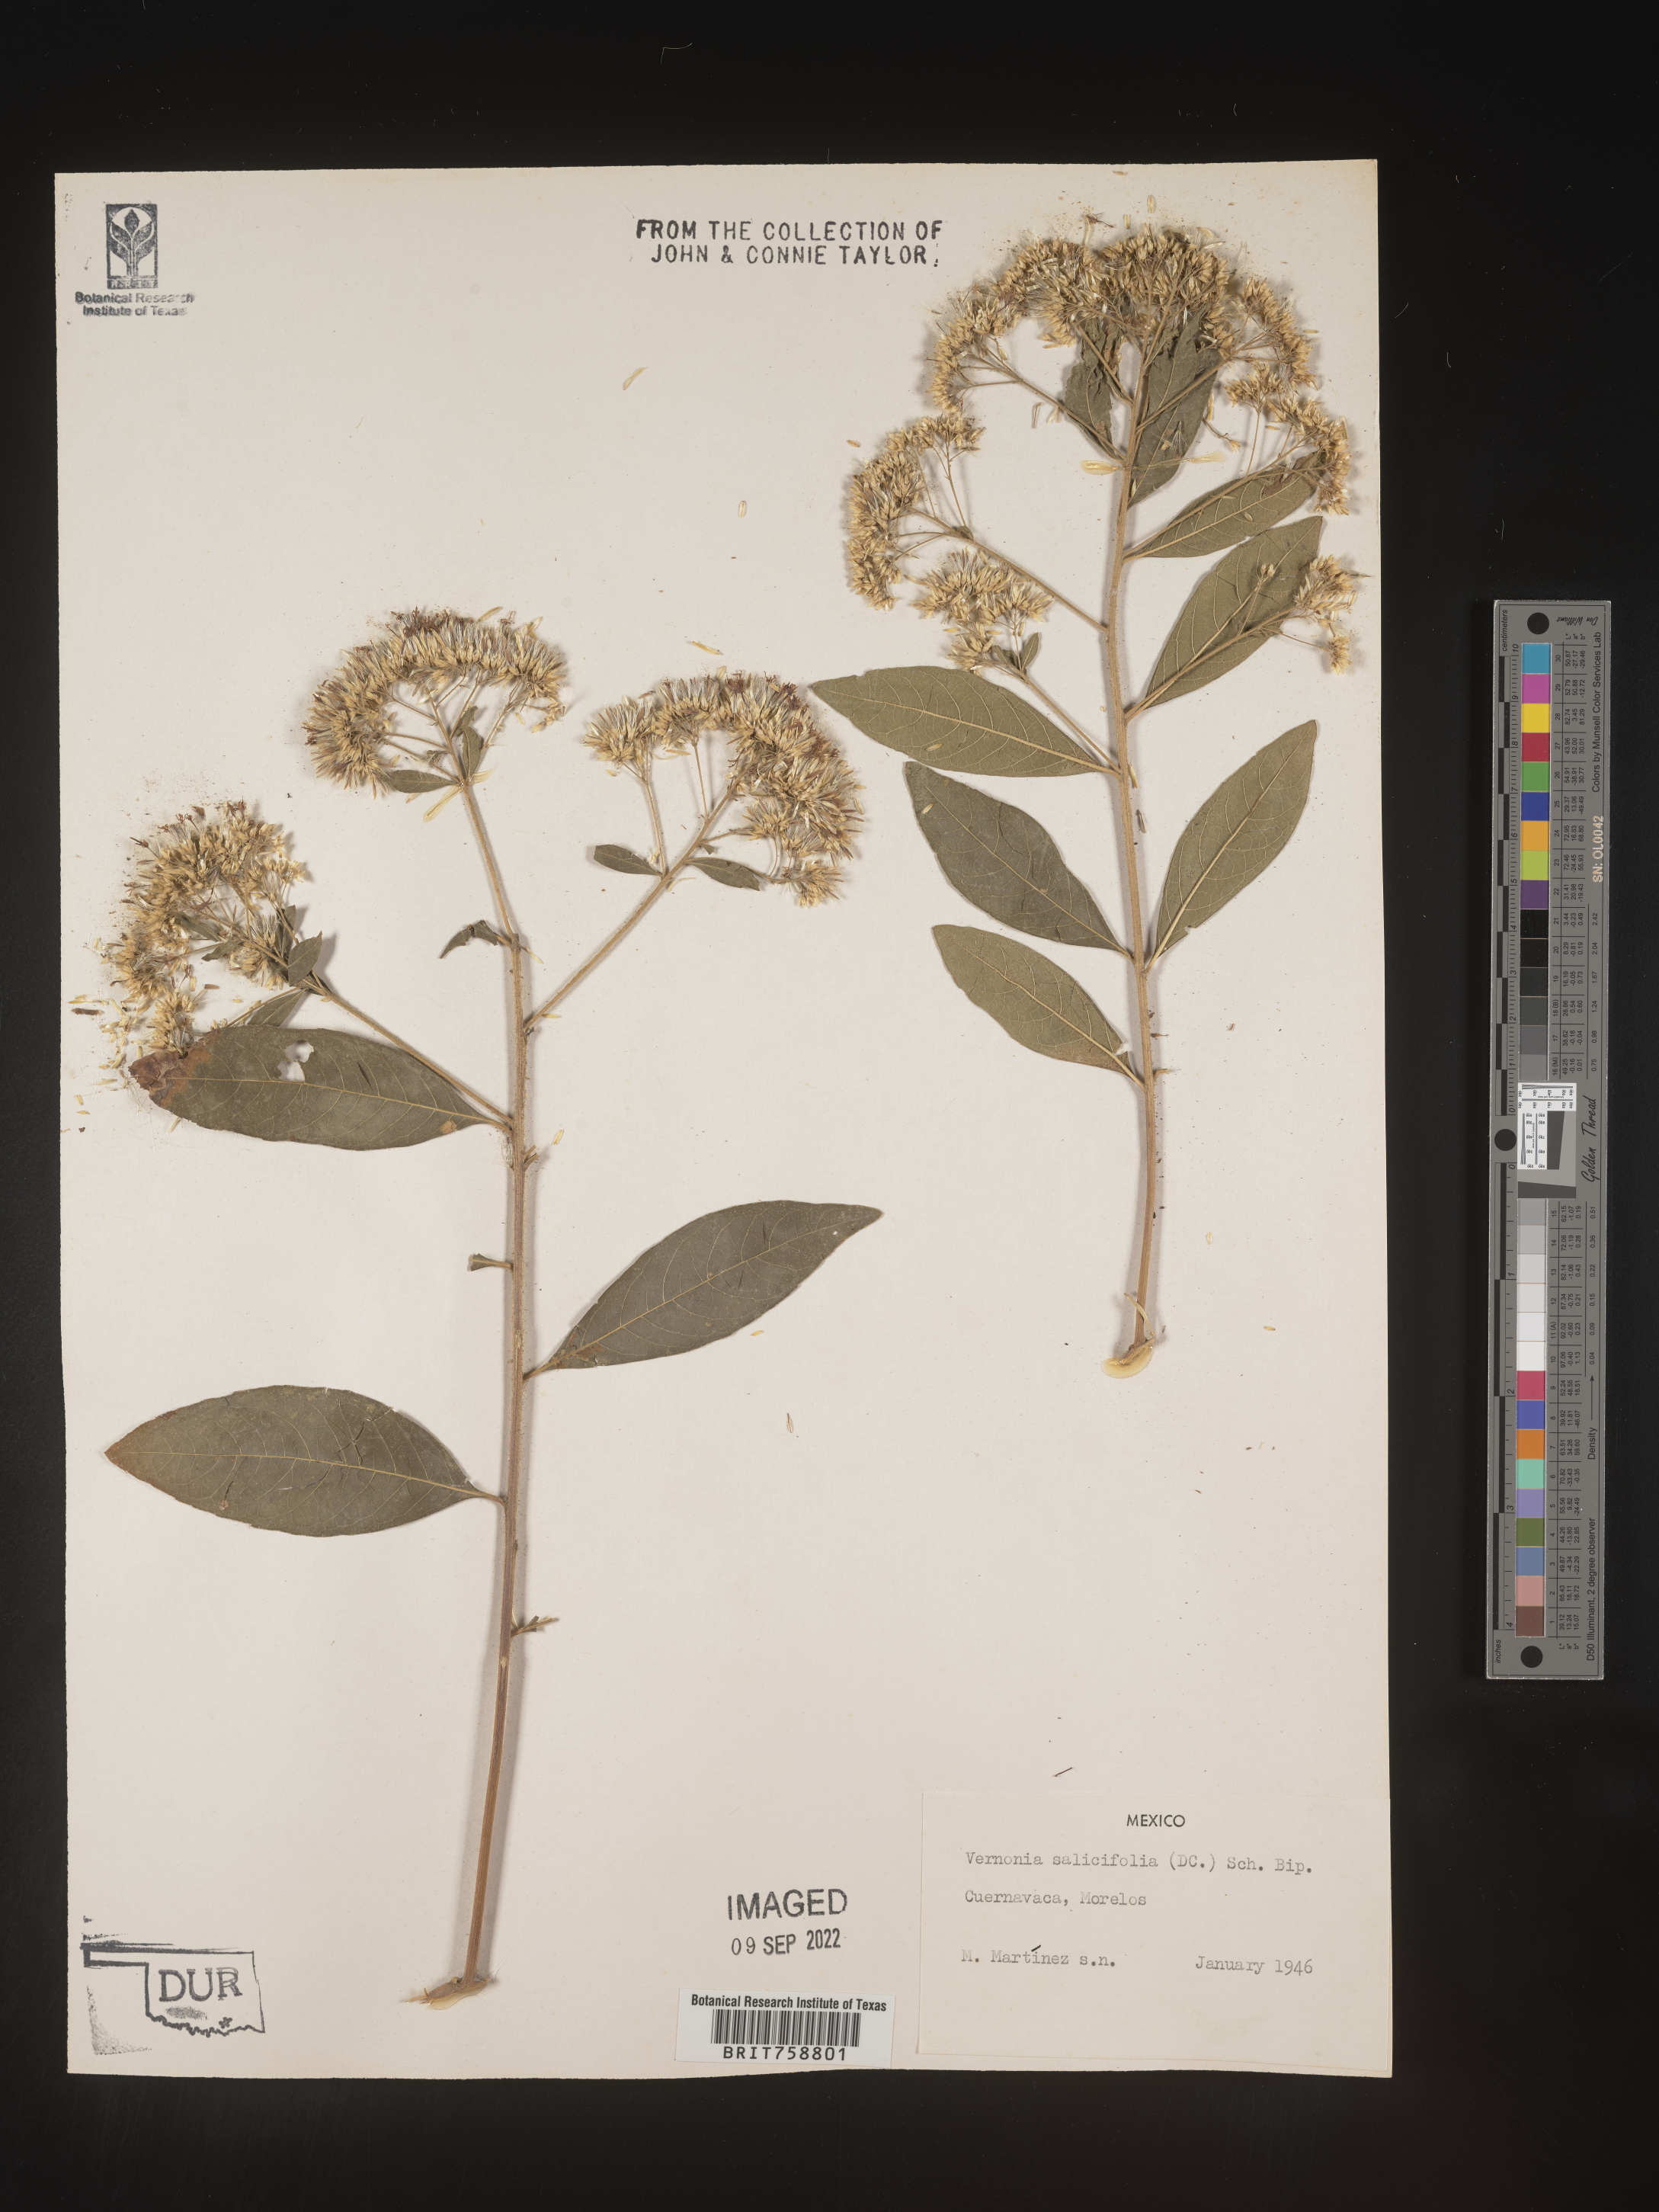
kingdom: Plantae
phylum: Tracheophyta
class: Magnoliopsida
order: Asterales
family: Asteraceae
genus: Vernonia
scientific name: Vernonia
